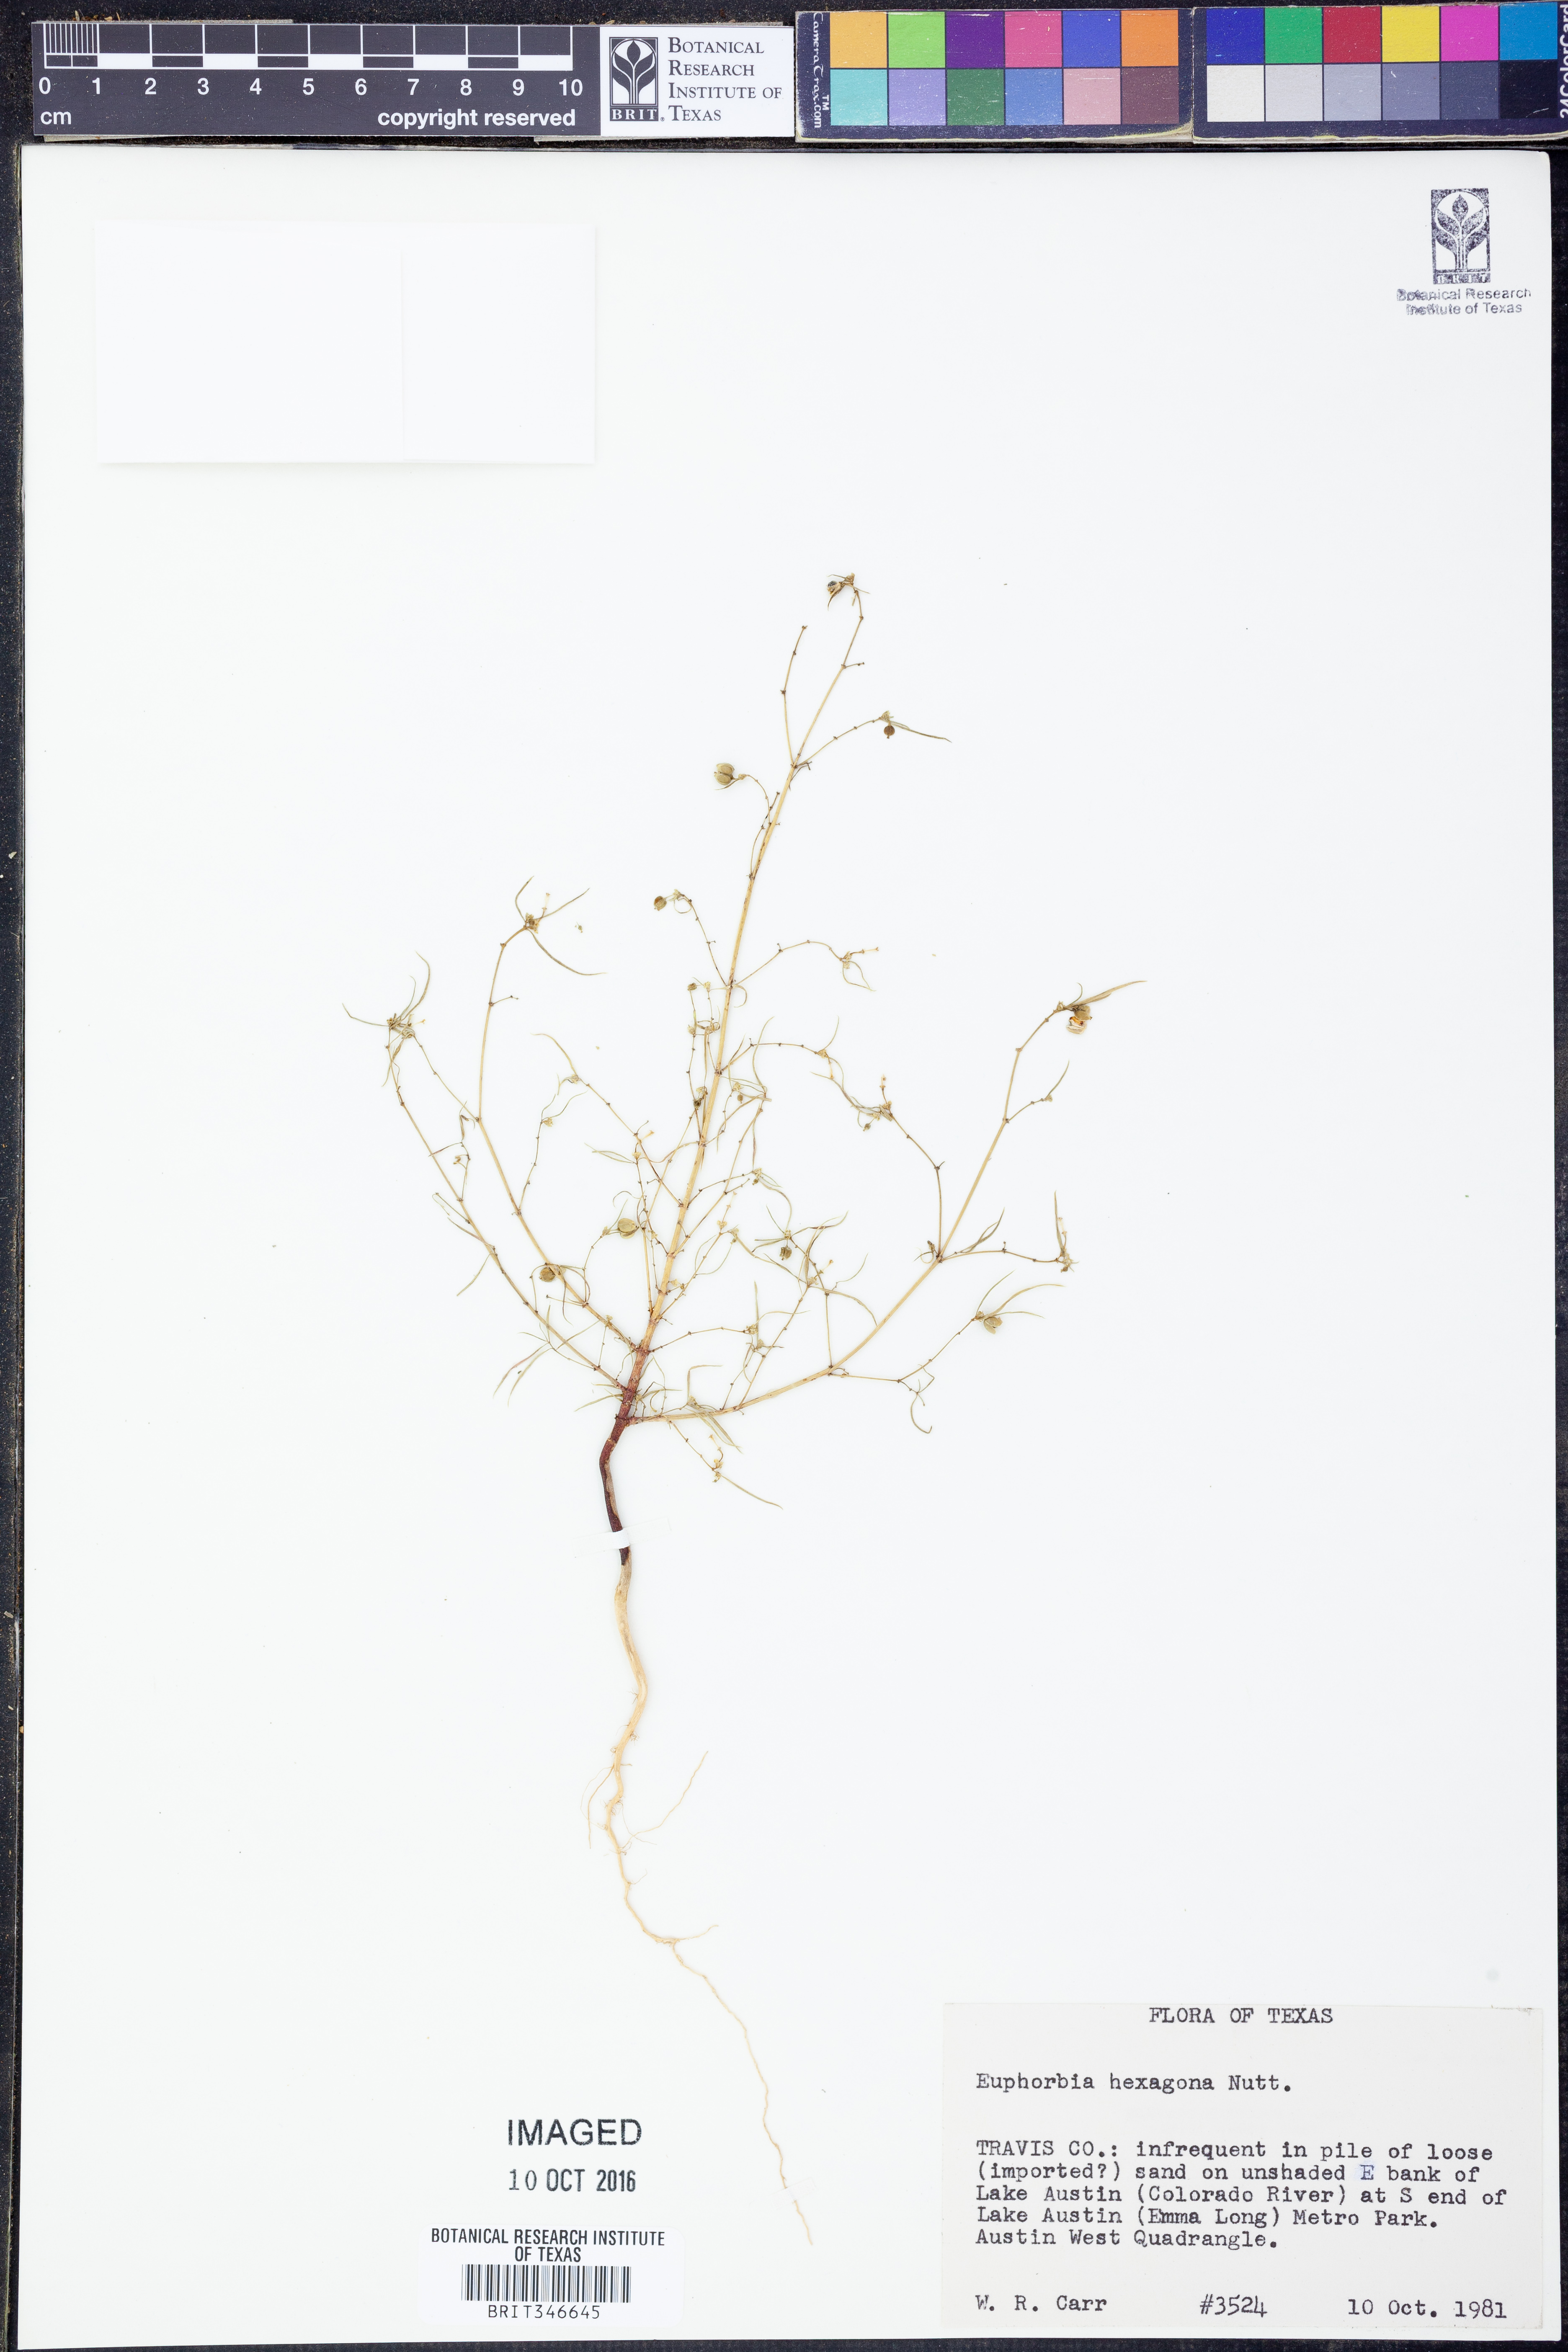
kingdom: Plantae
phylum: Tracheophyta
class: Magnoliopsida
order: Malpighiales
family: Euphorbiaceae
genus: Euphorbia
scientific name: Euphorbia hexagona
